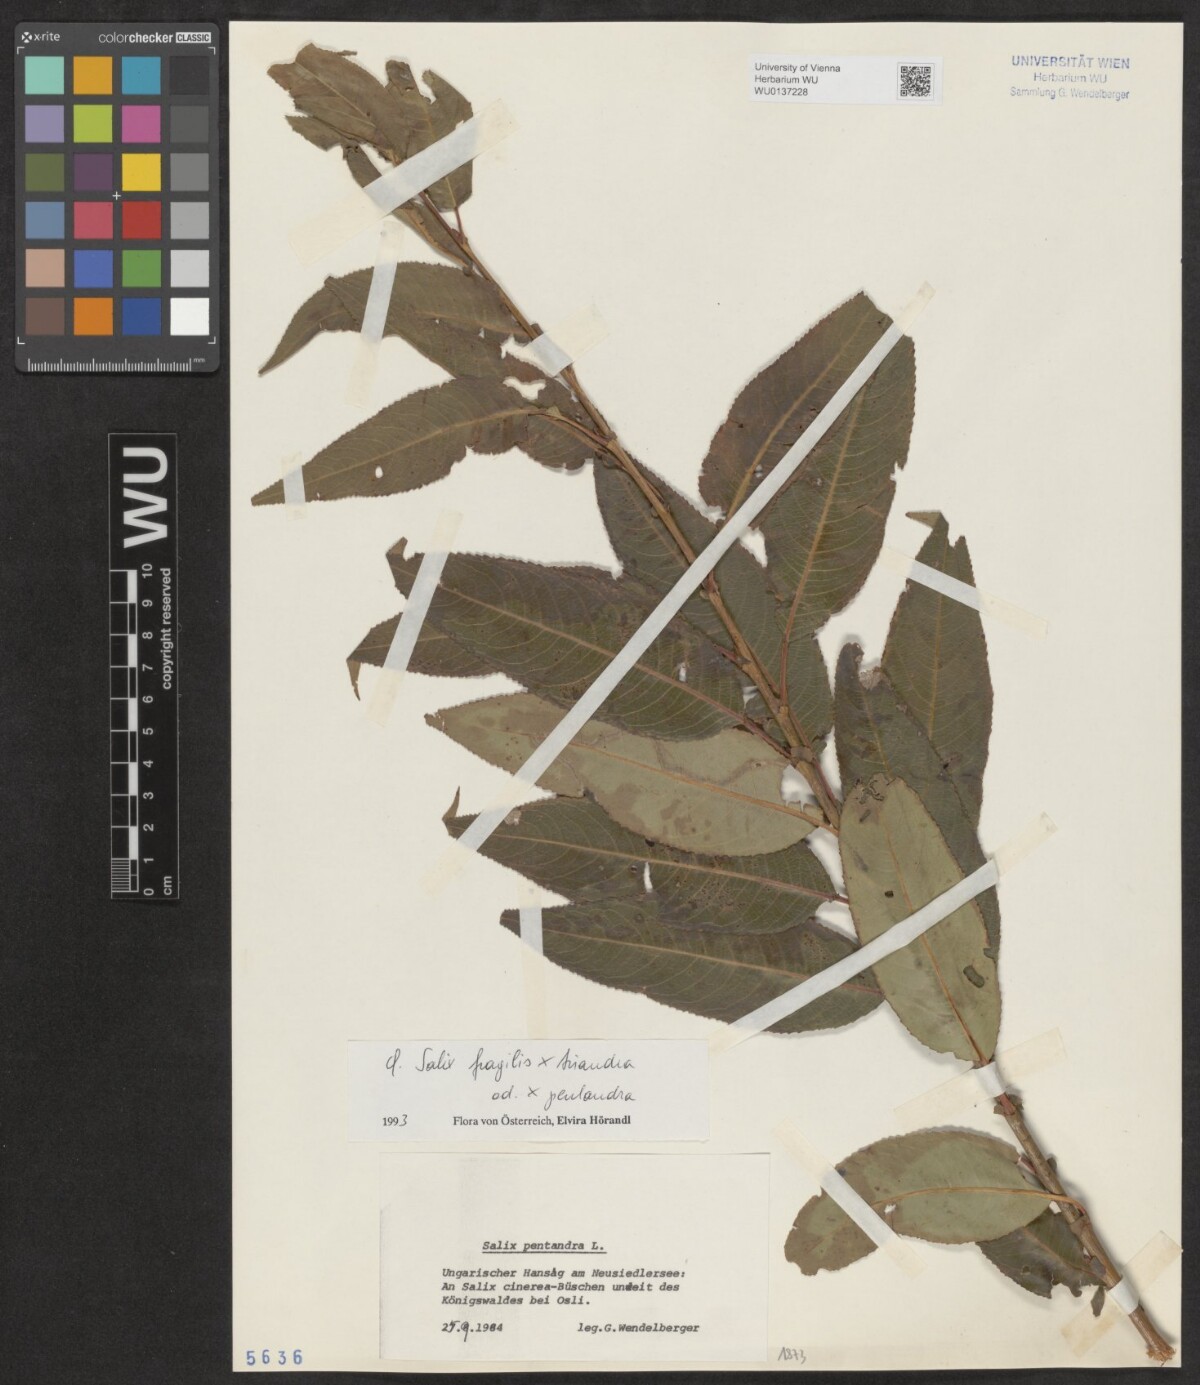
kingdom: Plantae
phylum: Tracheophyta
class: Magnoliopsida
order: Malpighiales
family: Salicaceae
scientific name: Salicaceae
